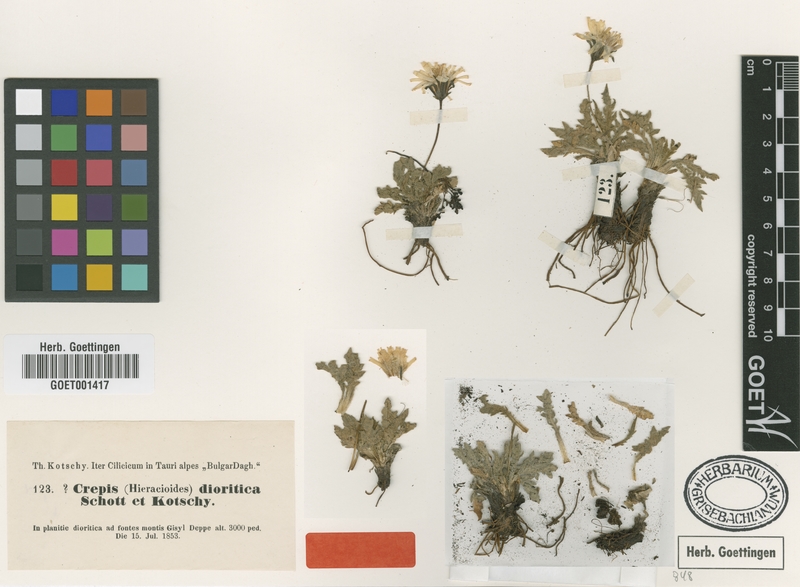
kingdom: Plantae
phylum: Tracheophyta
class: Magnoliopsida
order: Asterales
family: Asteraceae
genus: Crepis
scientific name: Crepis dioritica
